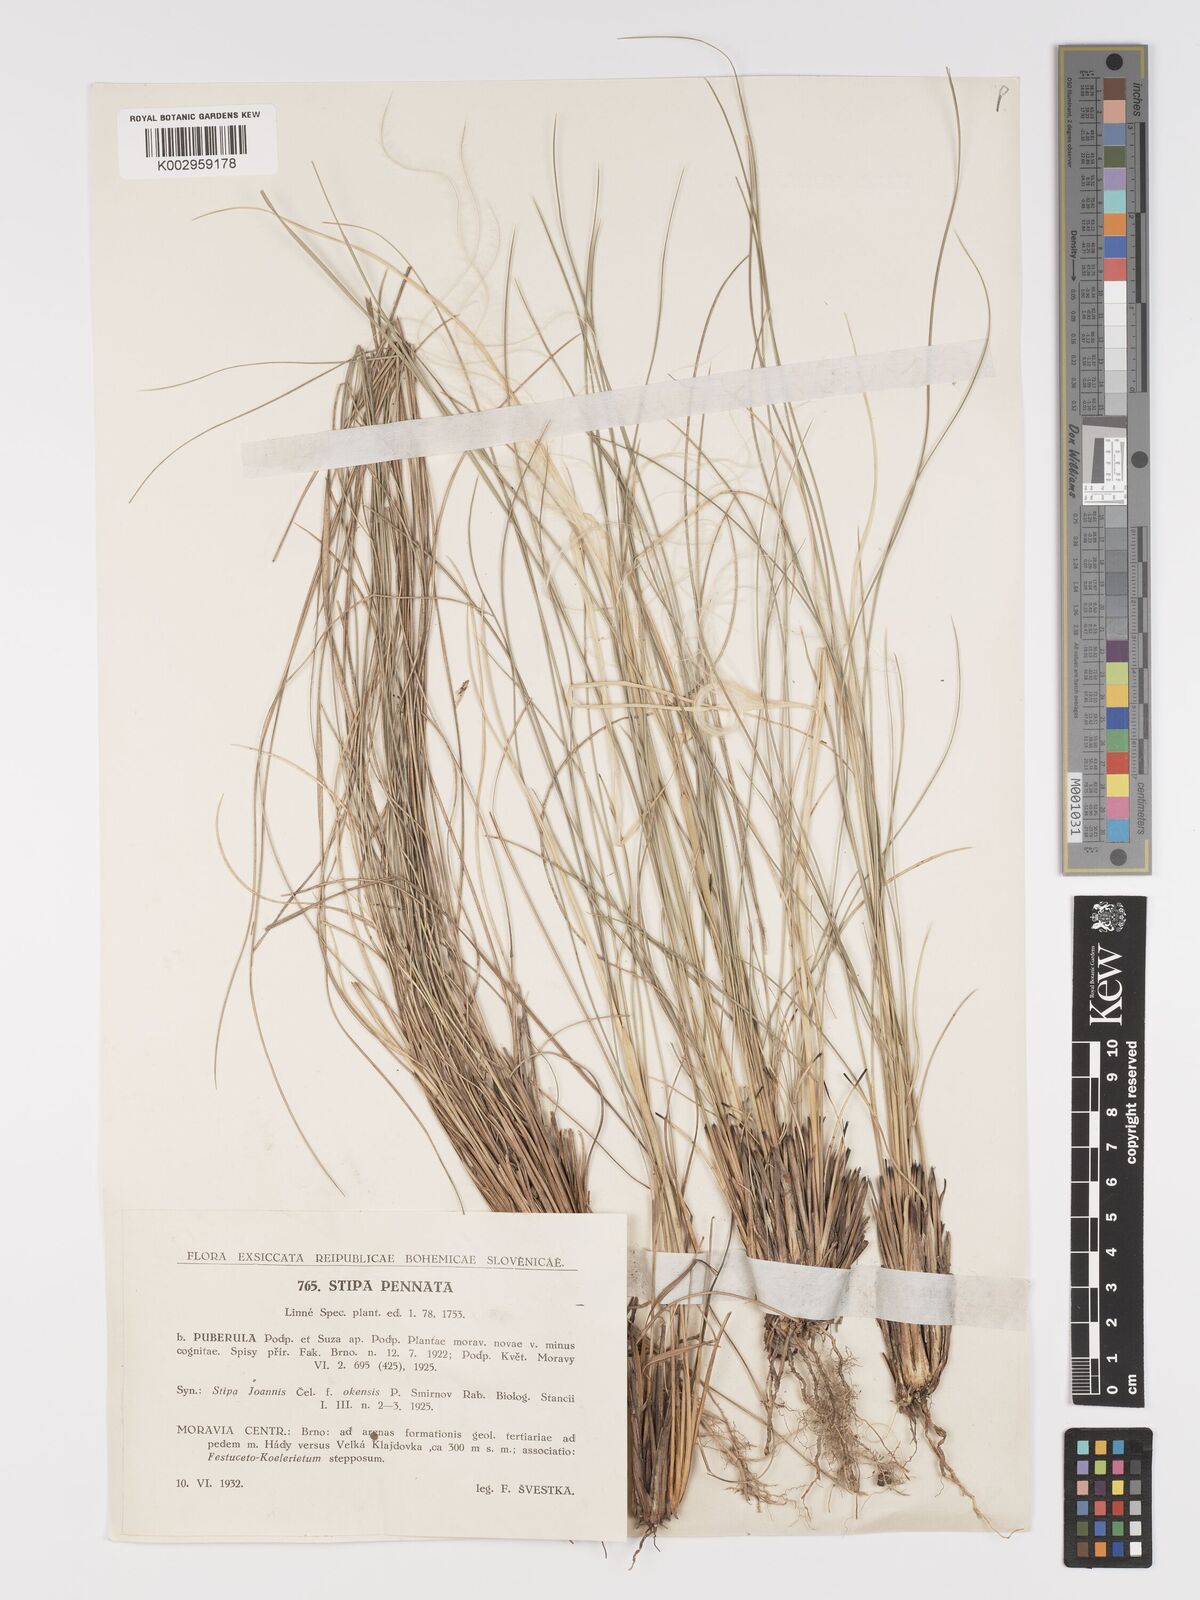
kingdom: Plantae
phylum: Tracheophyta
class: Liliopsida
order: Poales
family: Poaceae
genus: Stipa
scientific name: Stipa pennata
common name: European feather grass
